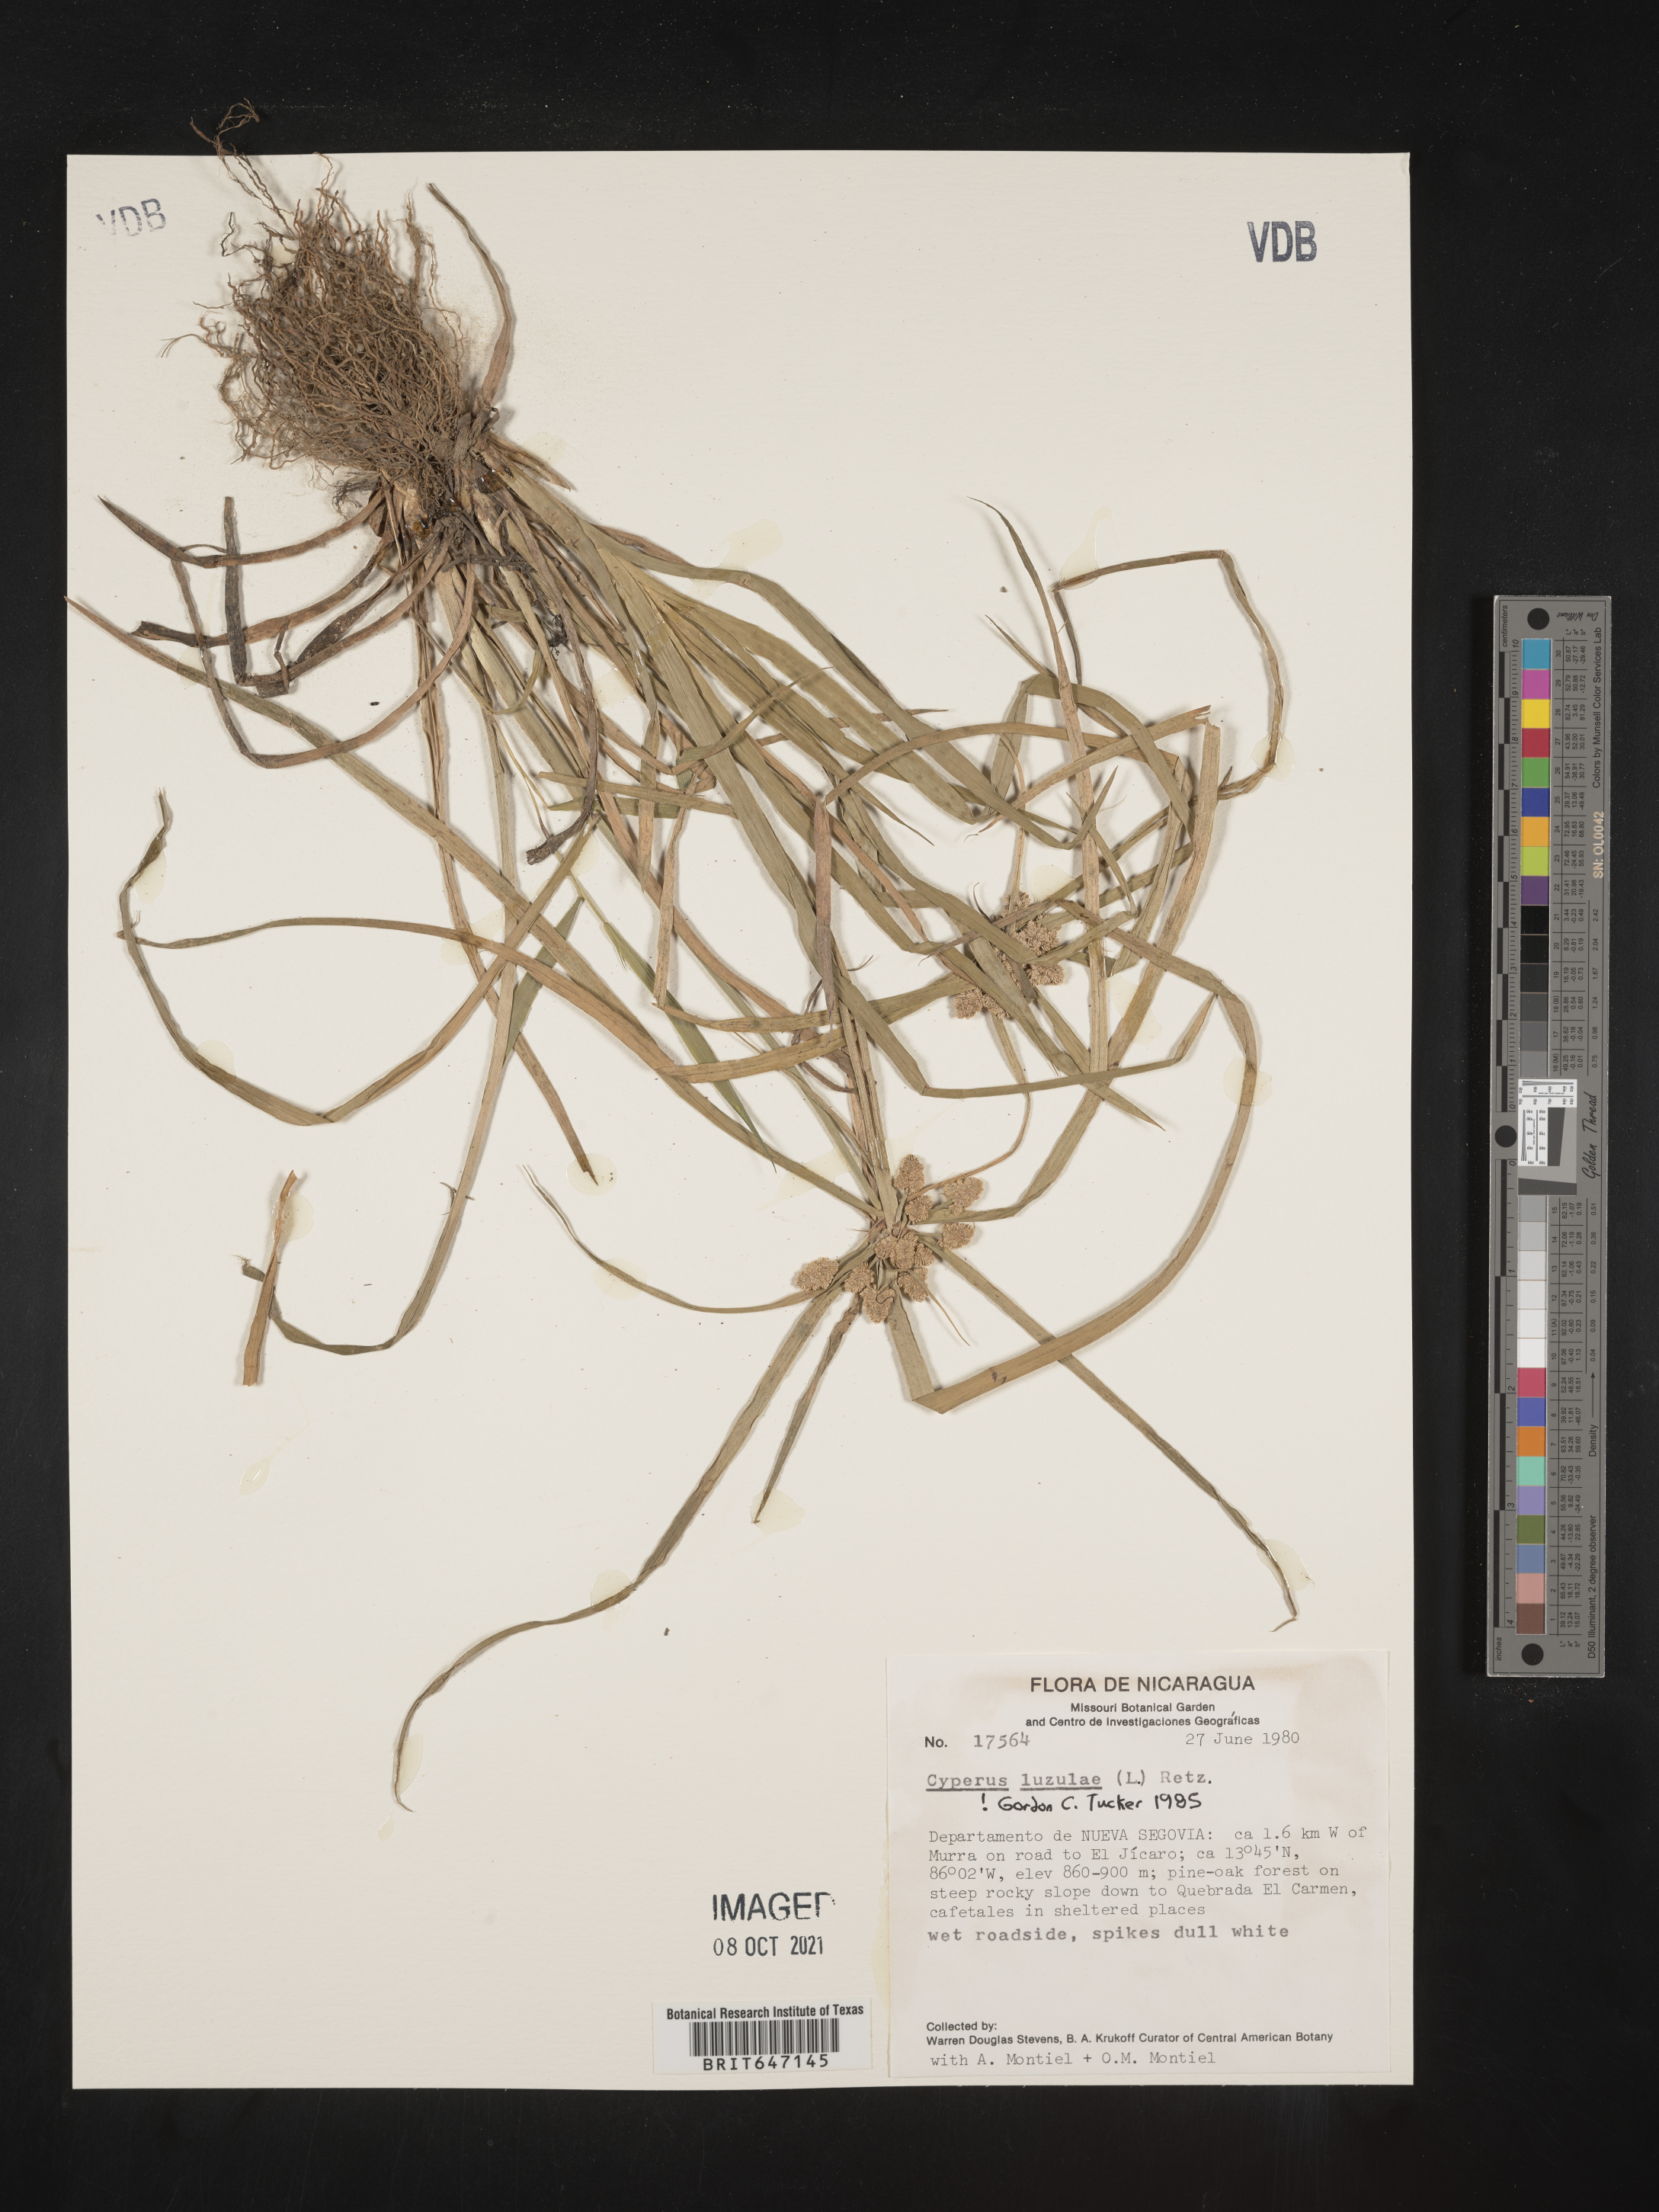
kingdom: Plantae
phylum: Tracheophyta
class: Liliopsida
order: Poales
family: Cyperaceae
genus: Cyperus
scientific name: Cyperus luzulae
